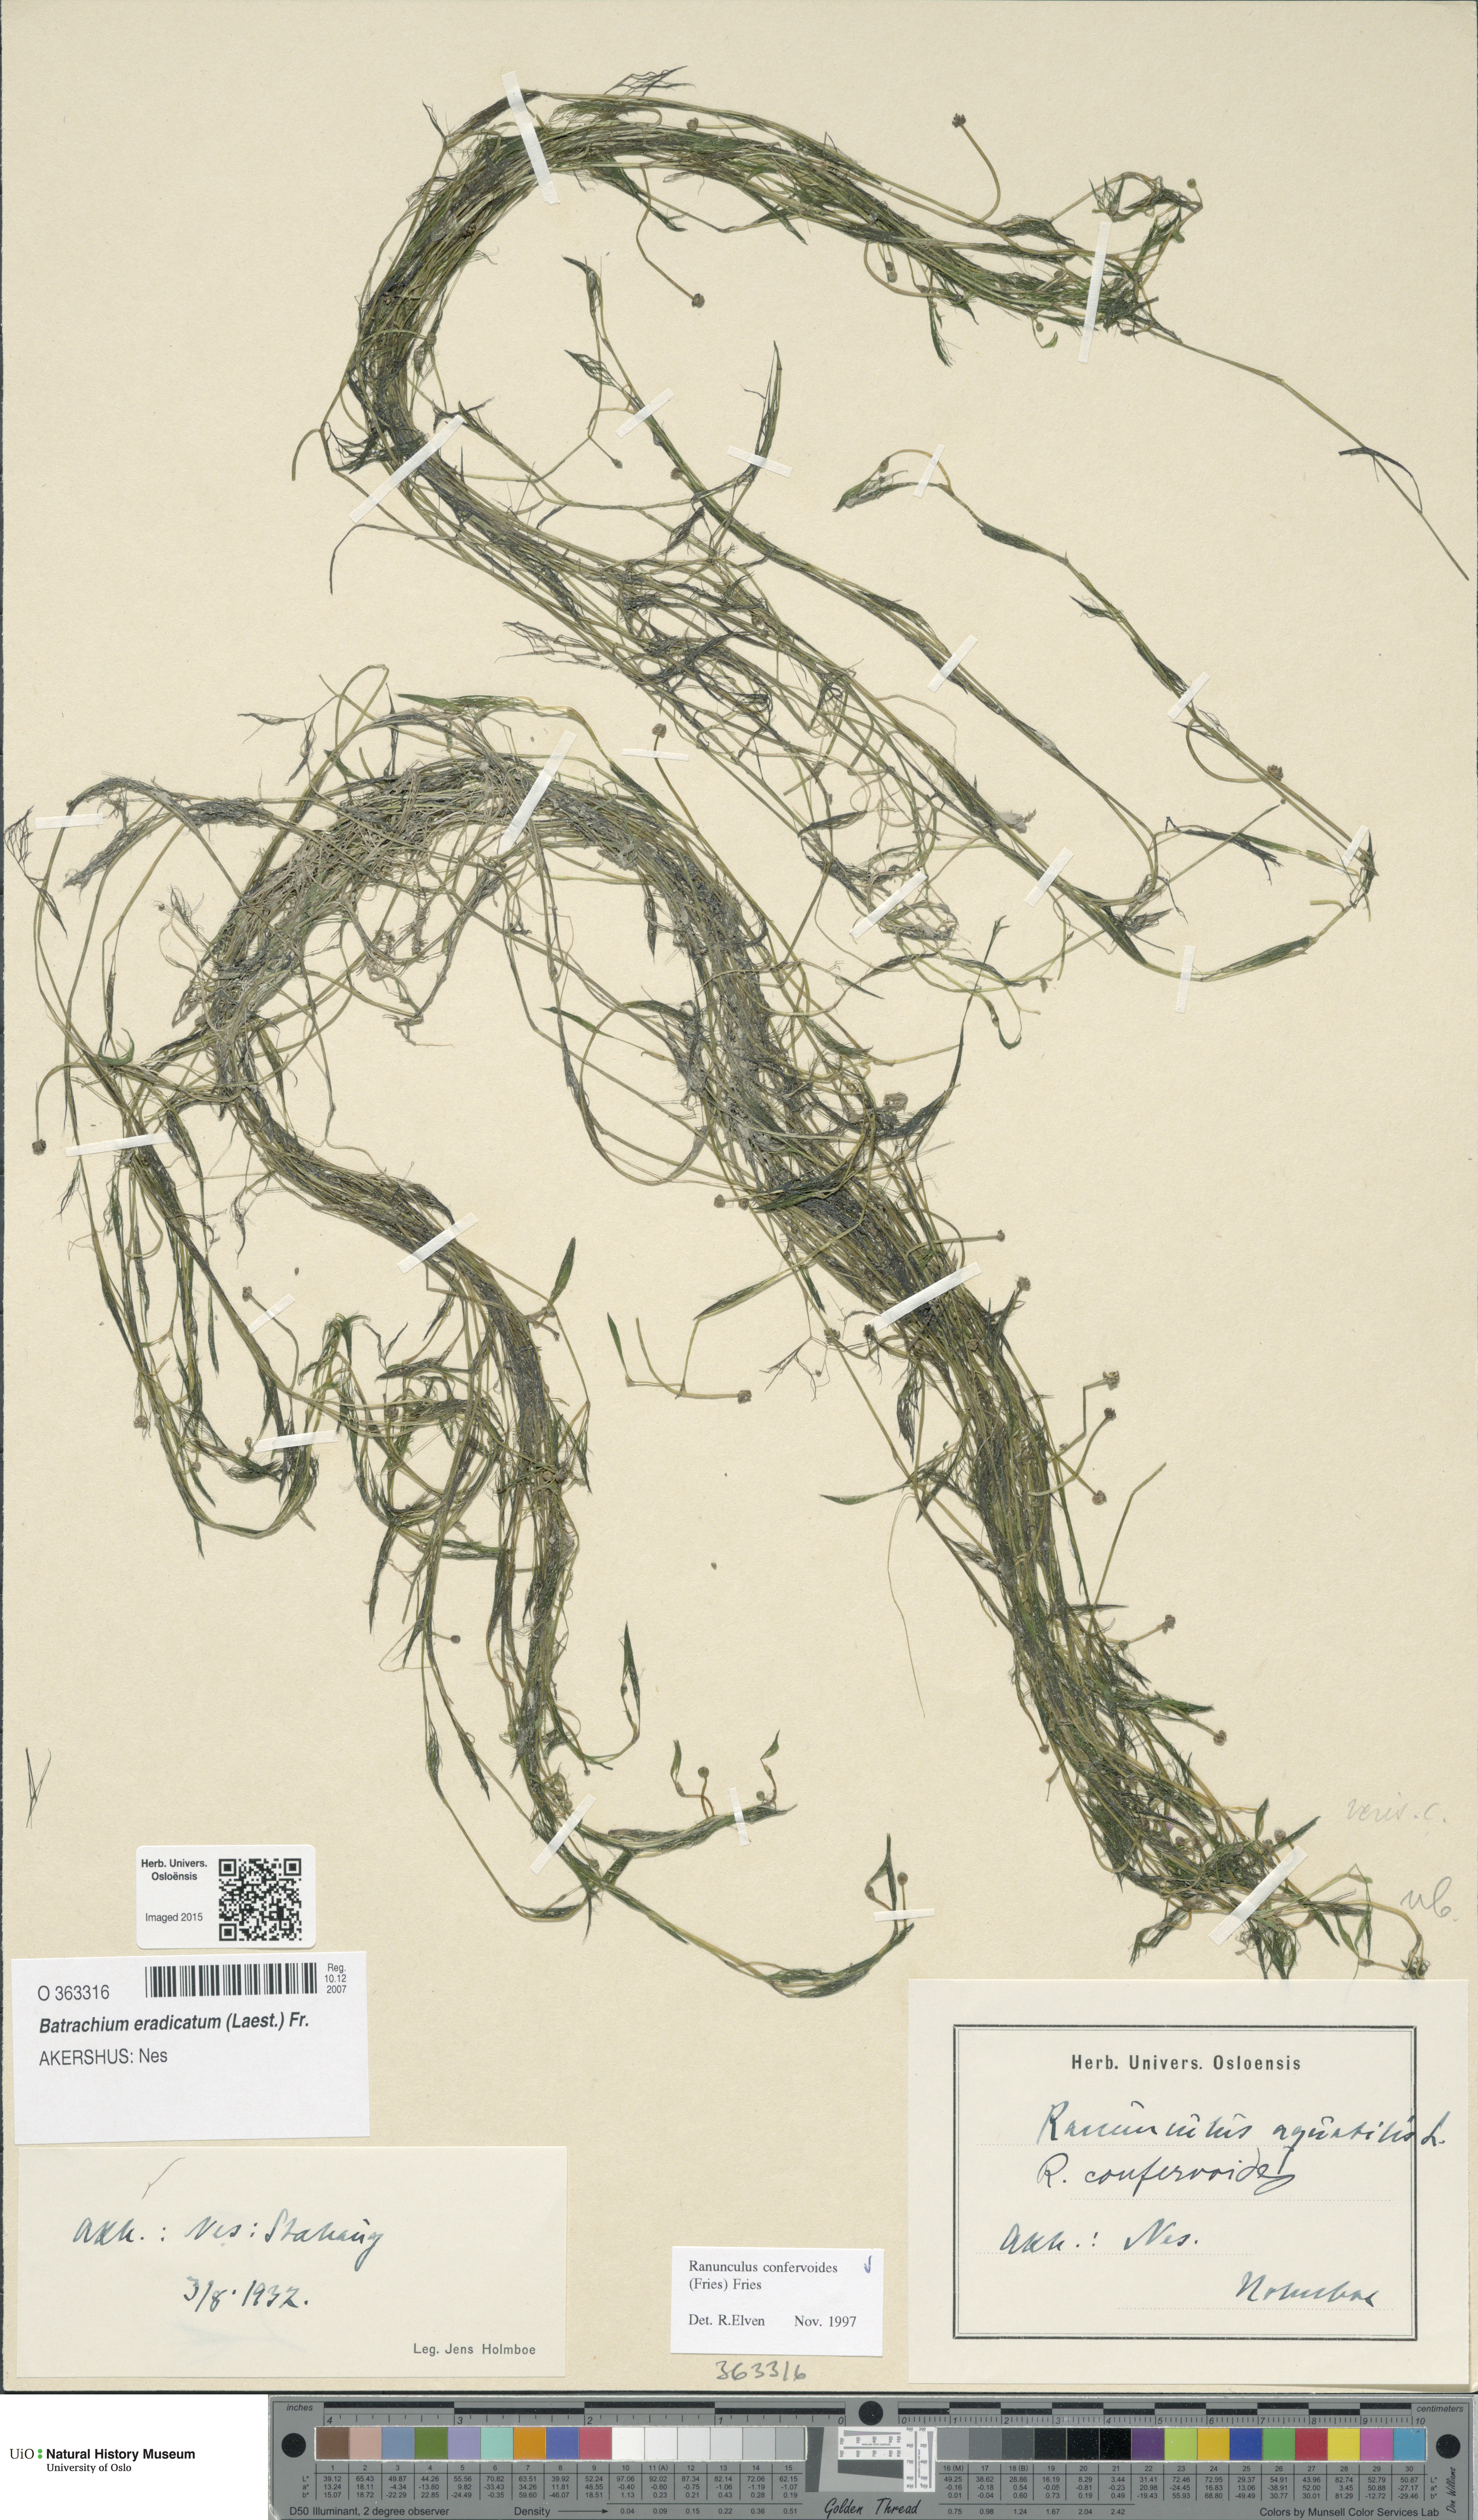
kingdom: Plantae
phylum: Tracheophyta
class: Magnoliopsida
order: Ranunculales
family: Ranunculaceae
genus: Ranunculus
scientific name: Ranunculus confervoides
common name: Delicate buttercup
